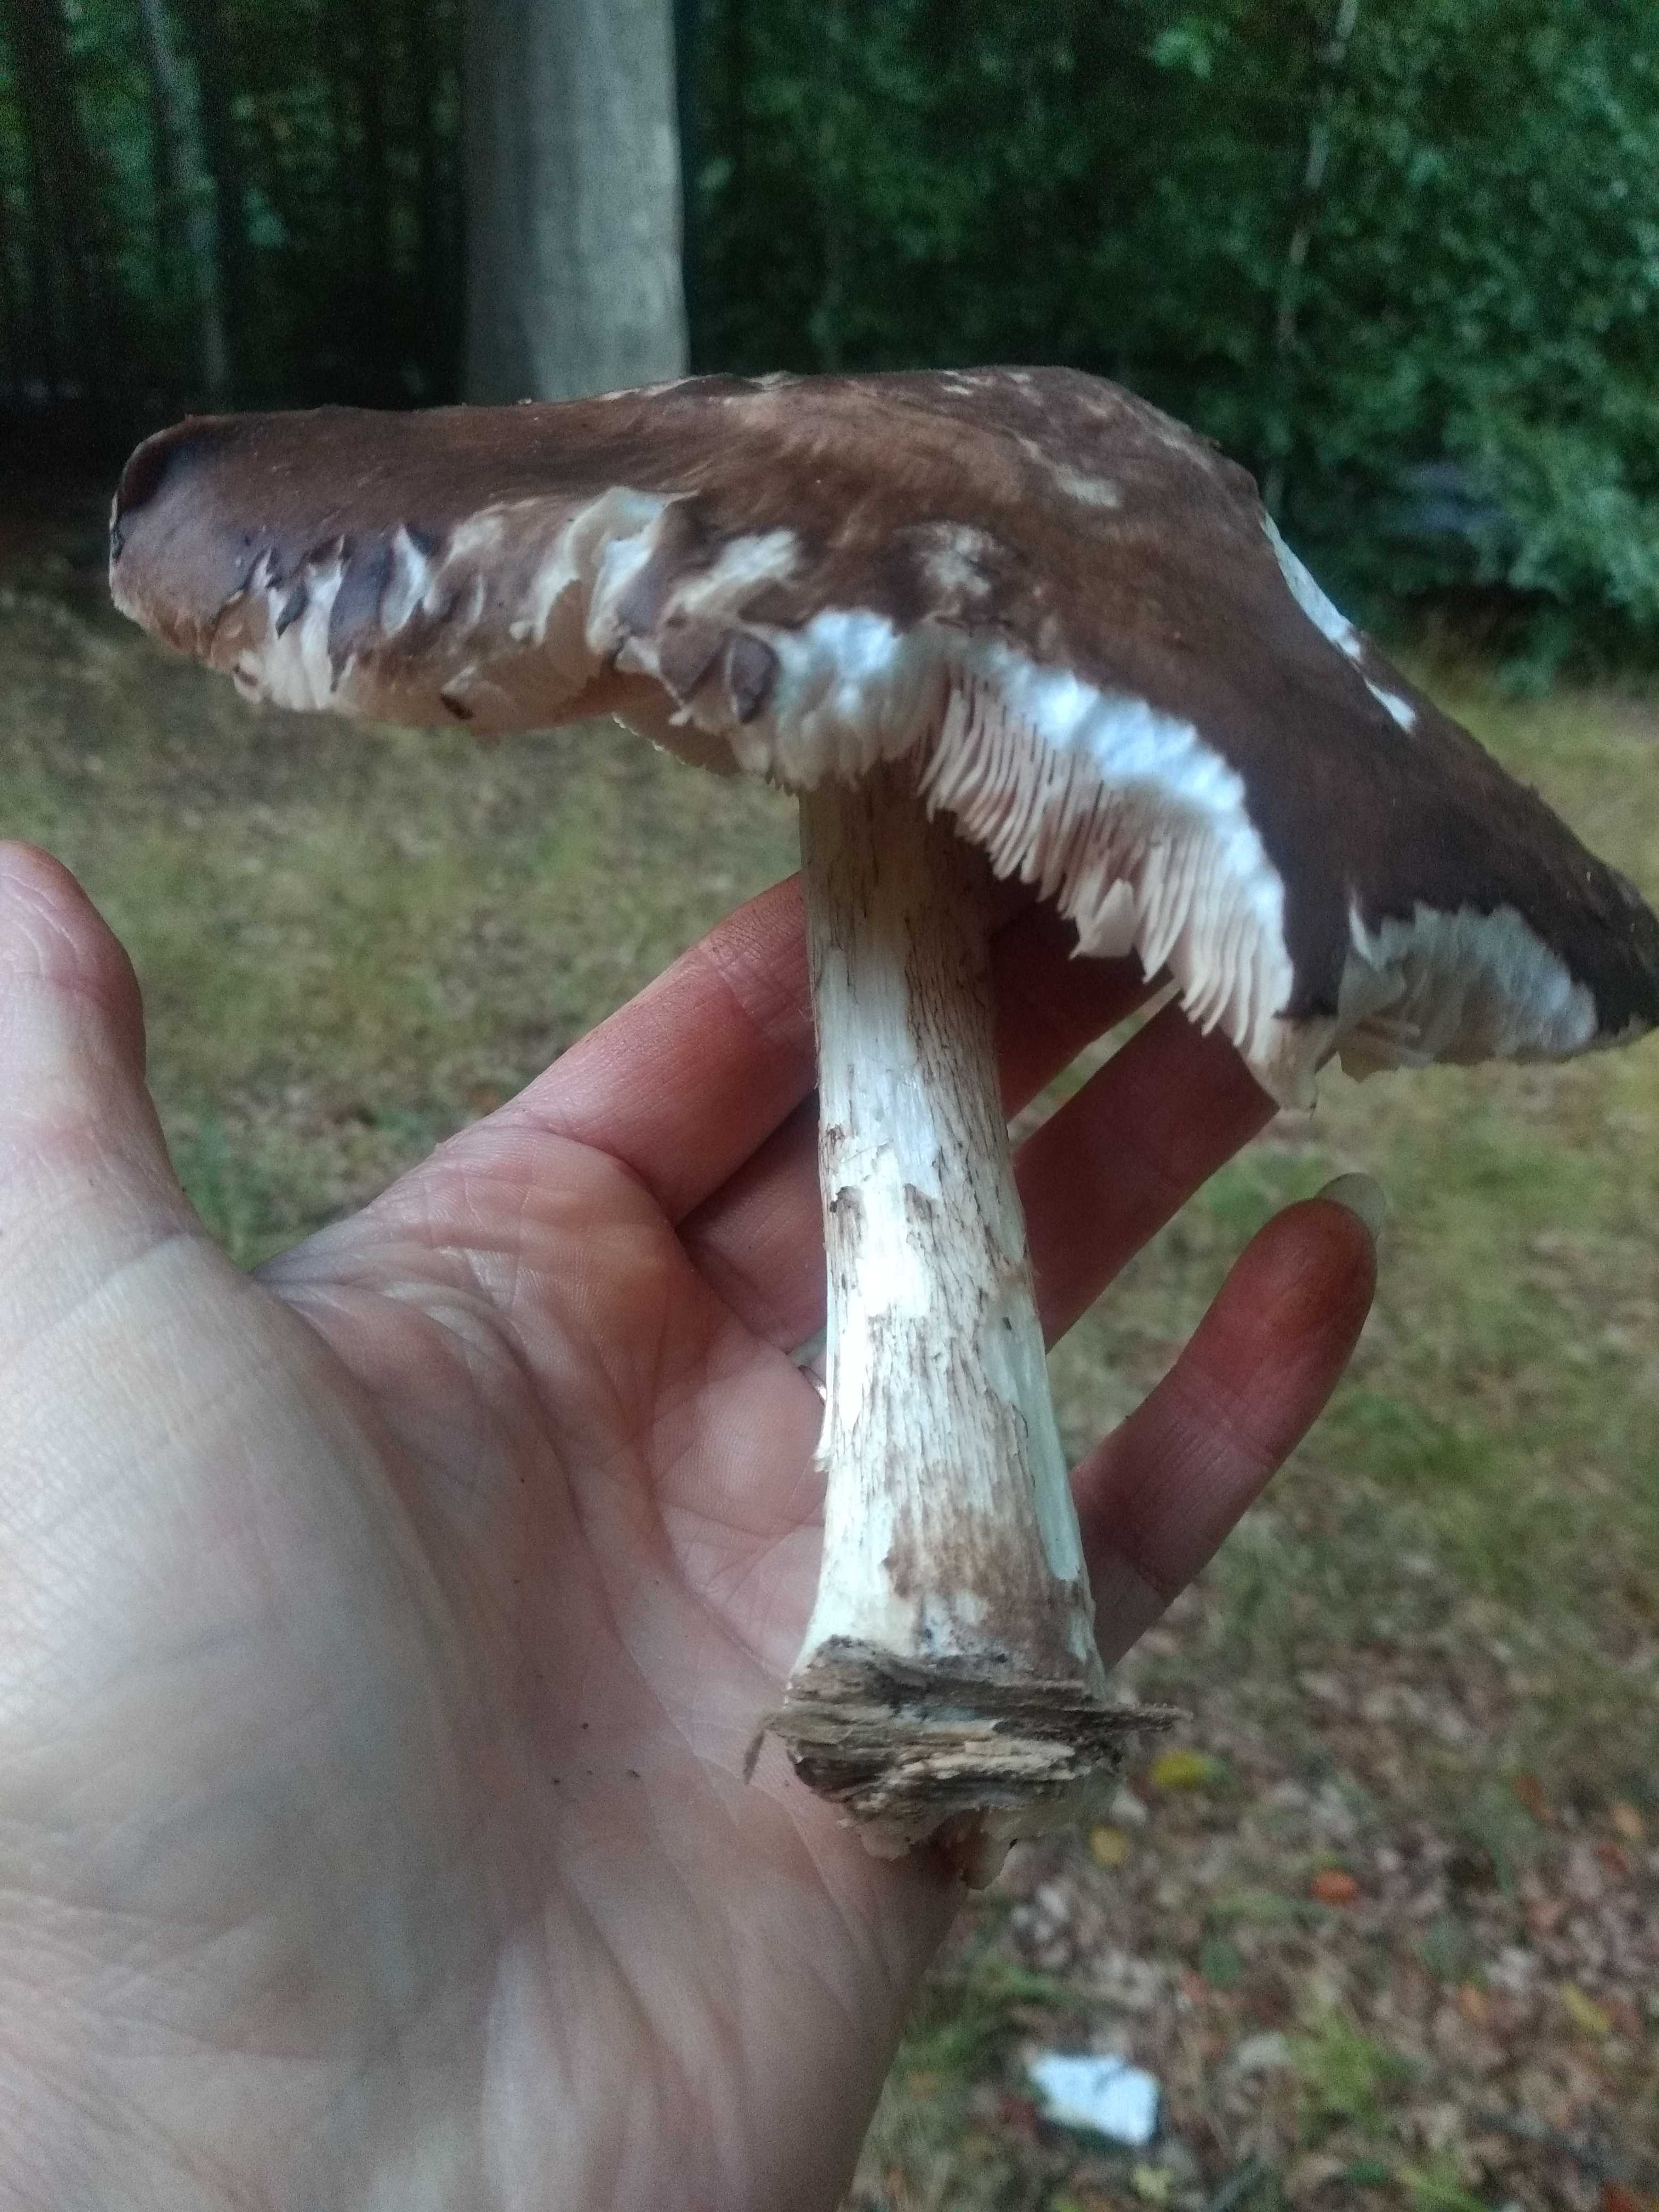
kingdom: Fungi
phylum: Basidiomycota
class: Agaricomycetes
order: Agaricales
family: Pluteaceae
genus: Pluteus
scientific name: Pluteus cervinus
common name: sodfarvet skærmhat
